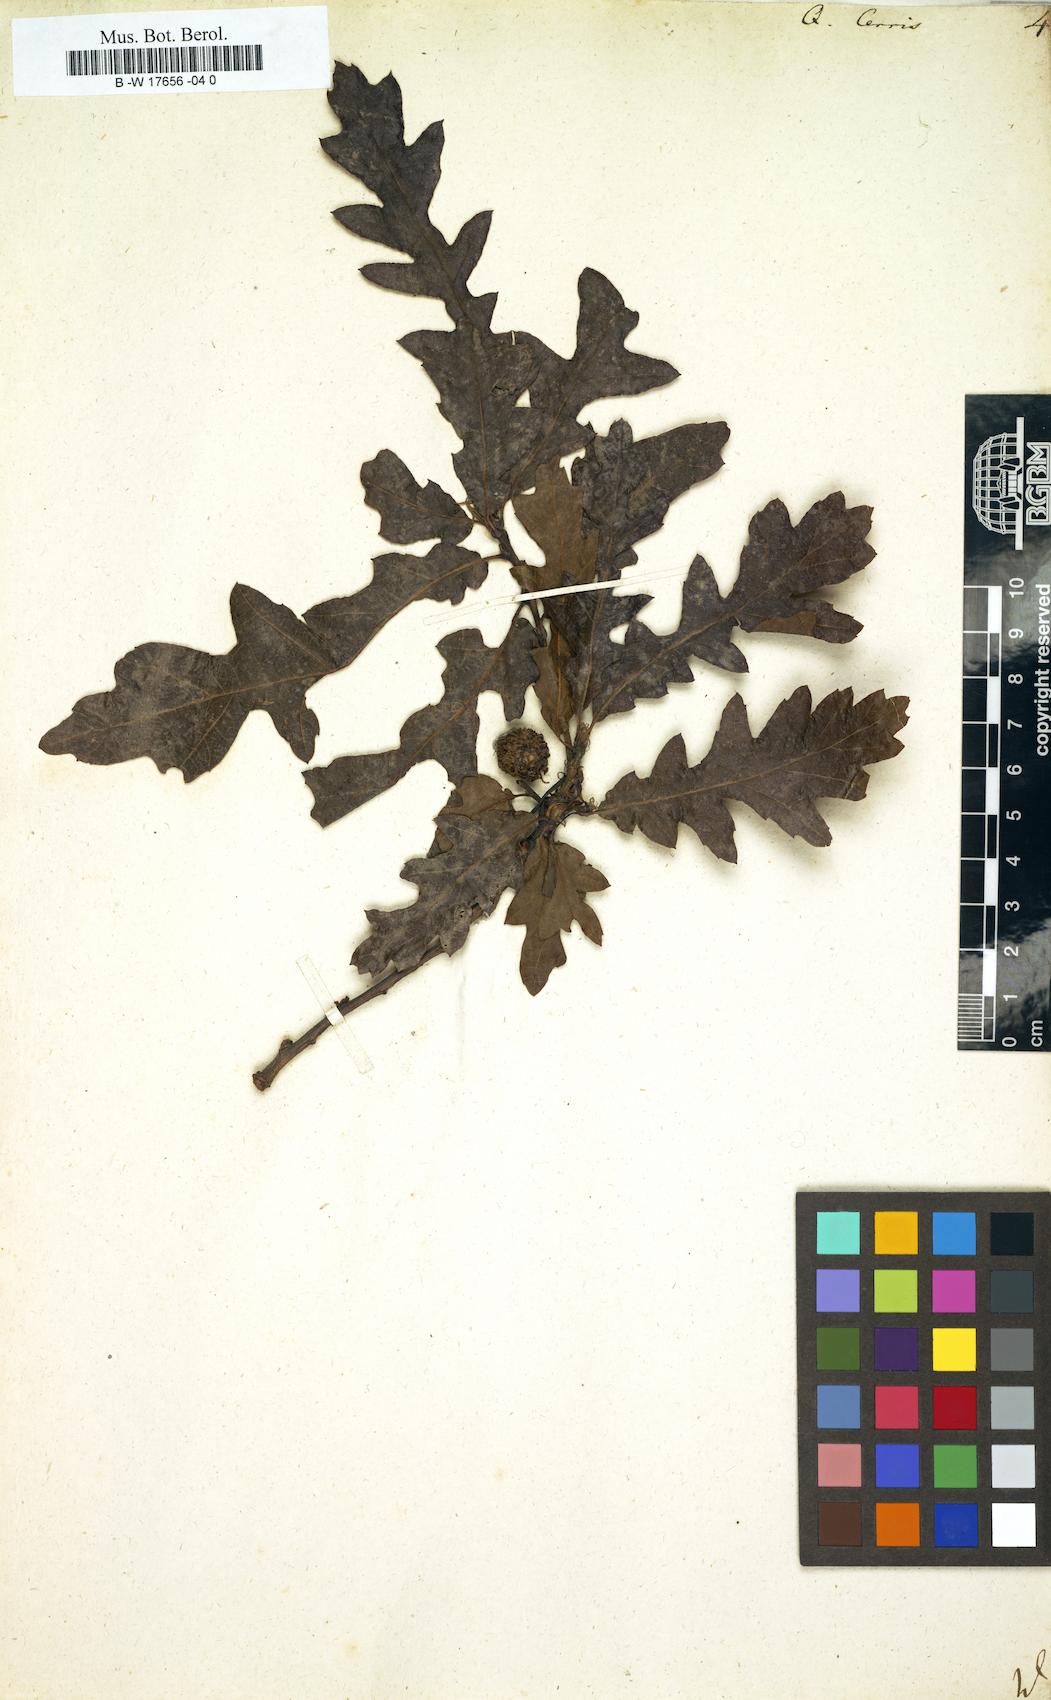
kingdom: Plantae
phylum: Tracheophyta
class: Magnoliopsida
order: Fagales
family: Fagaceae
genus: Quercus
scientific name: Quercus cerris
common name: Turkey oak
